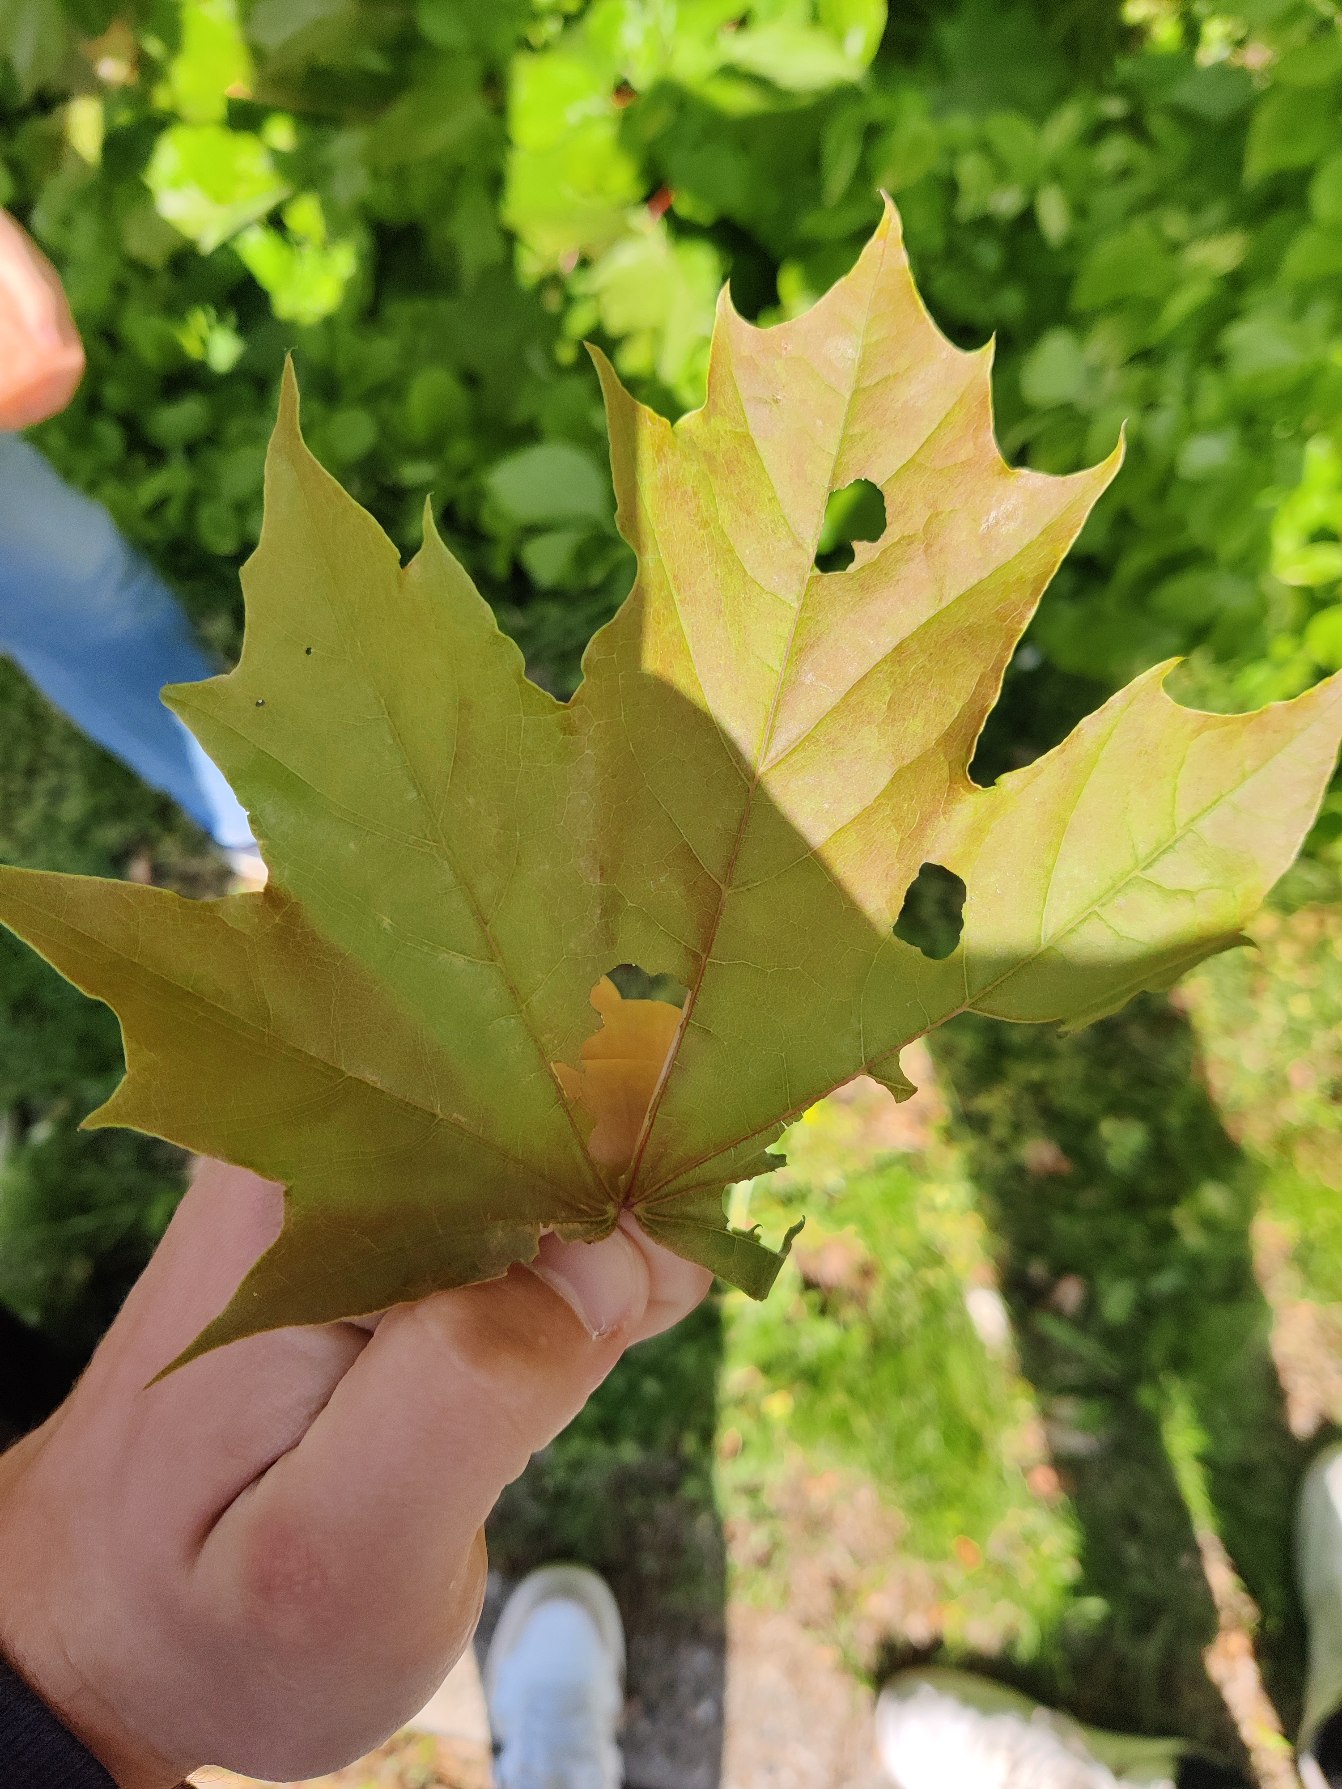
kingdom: Plantae
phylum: Tracheophyta
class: Magnoliopsida
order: Sapindales
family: Sapindaceae
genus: Acer
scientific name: Acer platanoides
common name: Spids-løn
